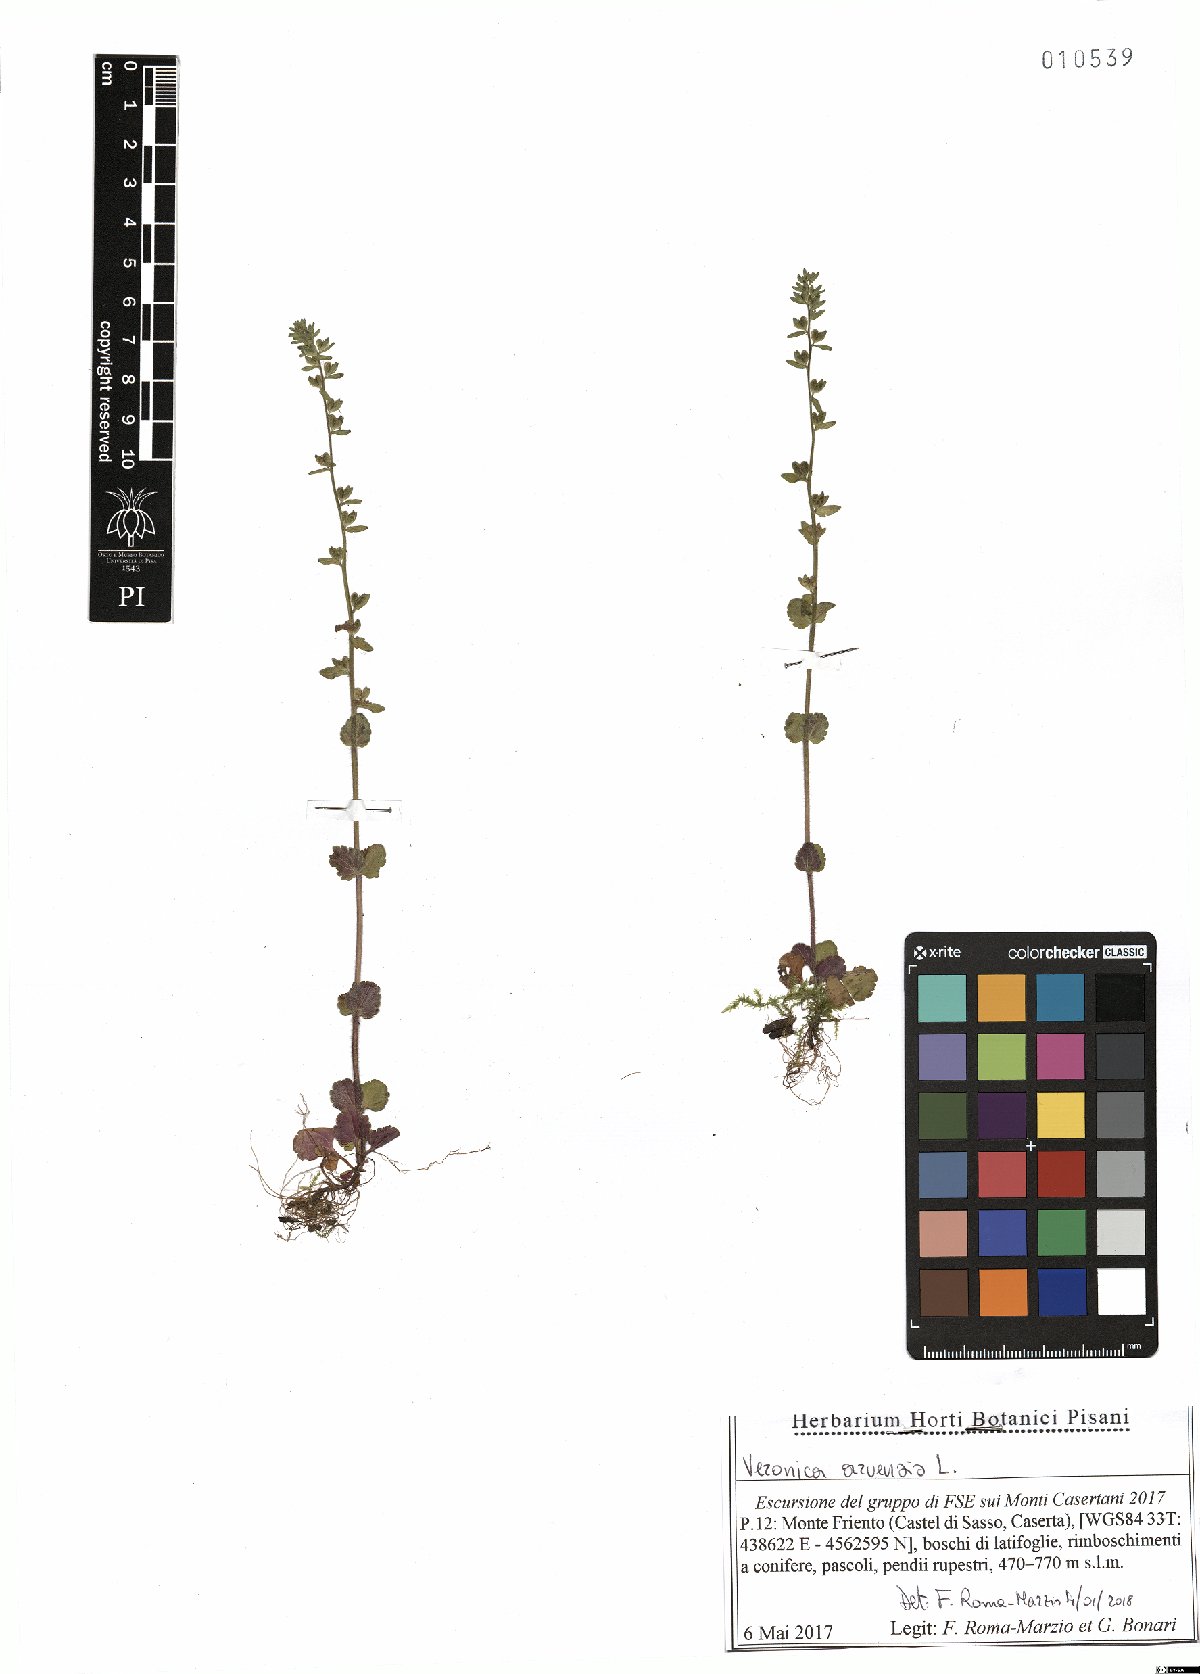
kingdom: Plantae
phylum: Tracheophyta
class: Magnoliopsida
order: Lamiales
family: Plantaginaceae
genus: Veronica
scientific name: Veronica arvensis
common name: Corn speedwell
